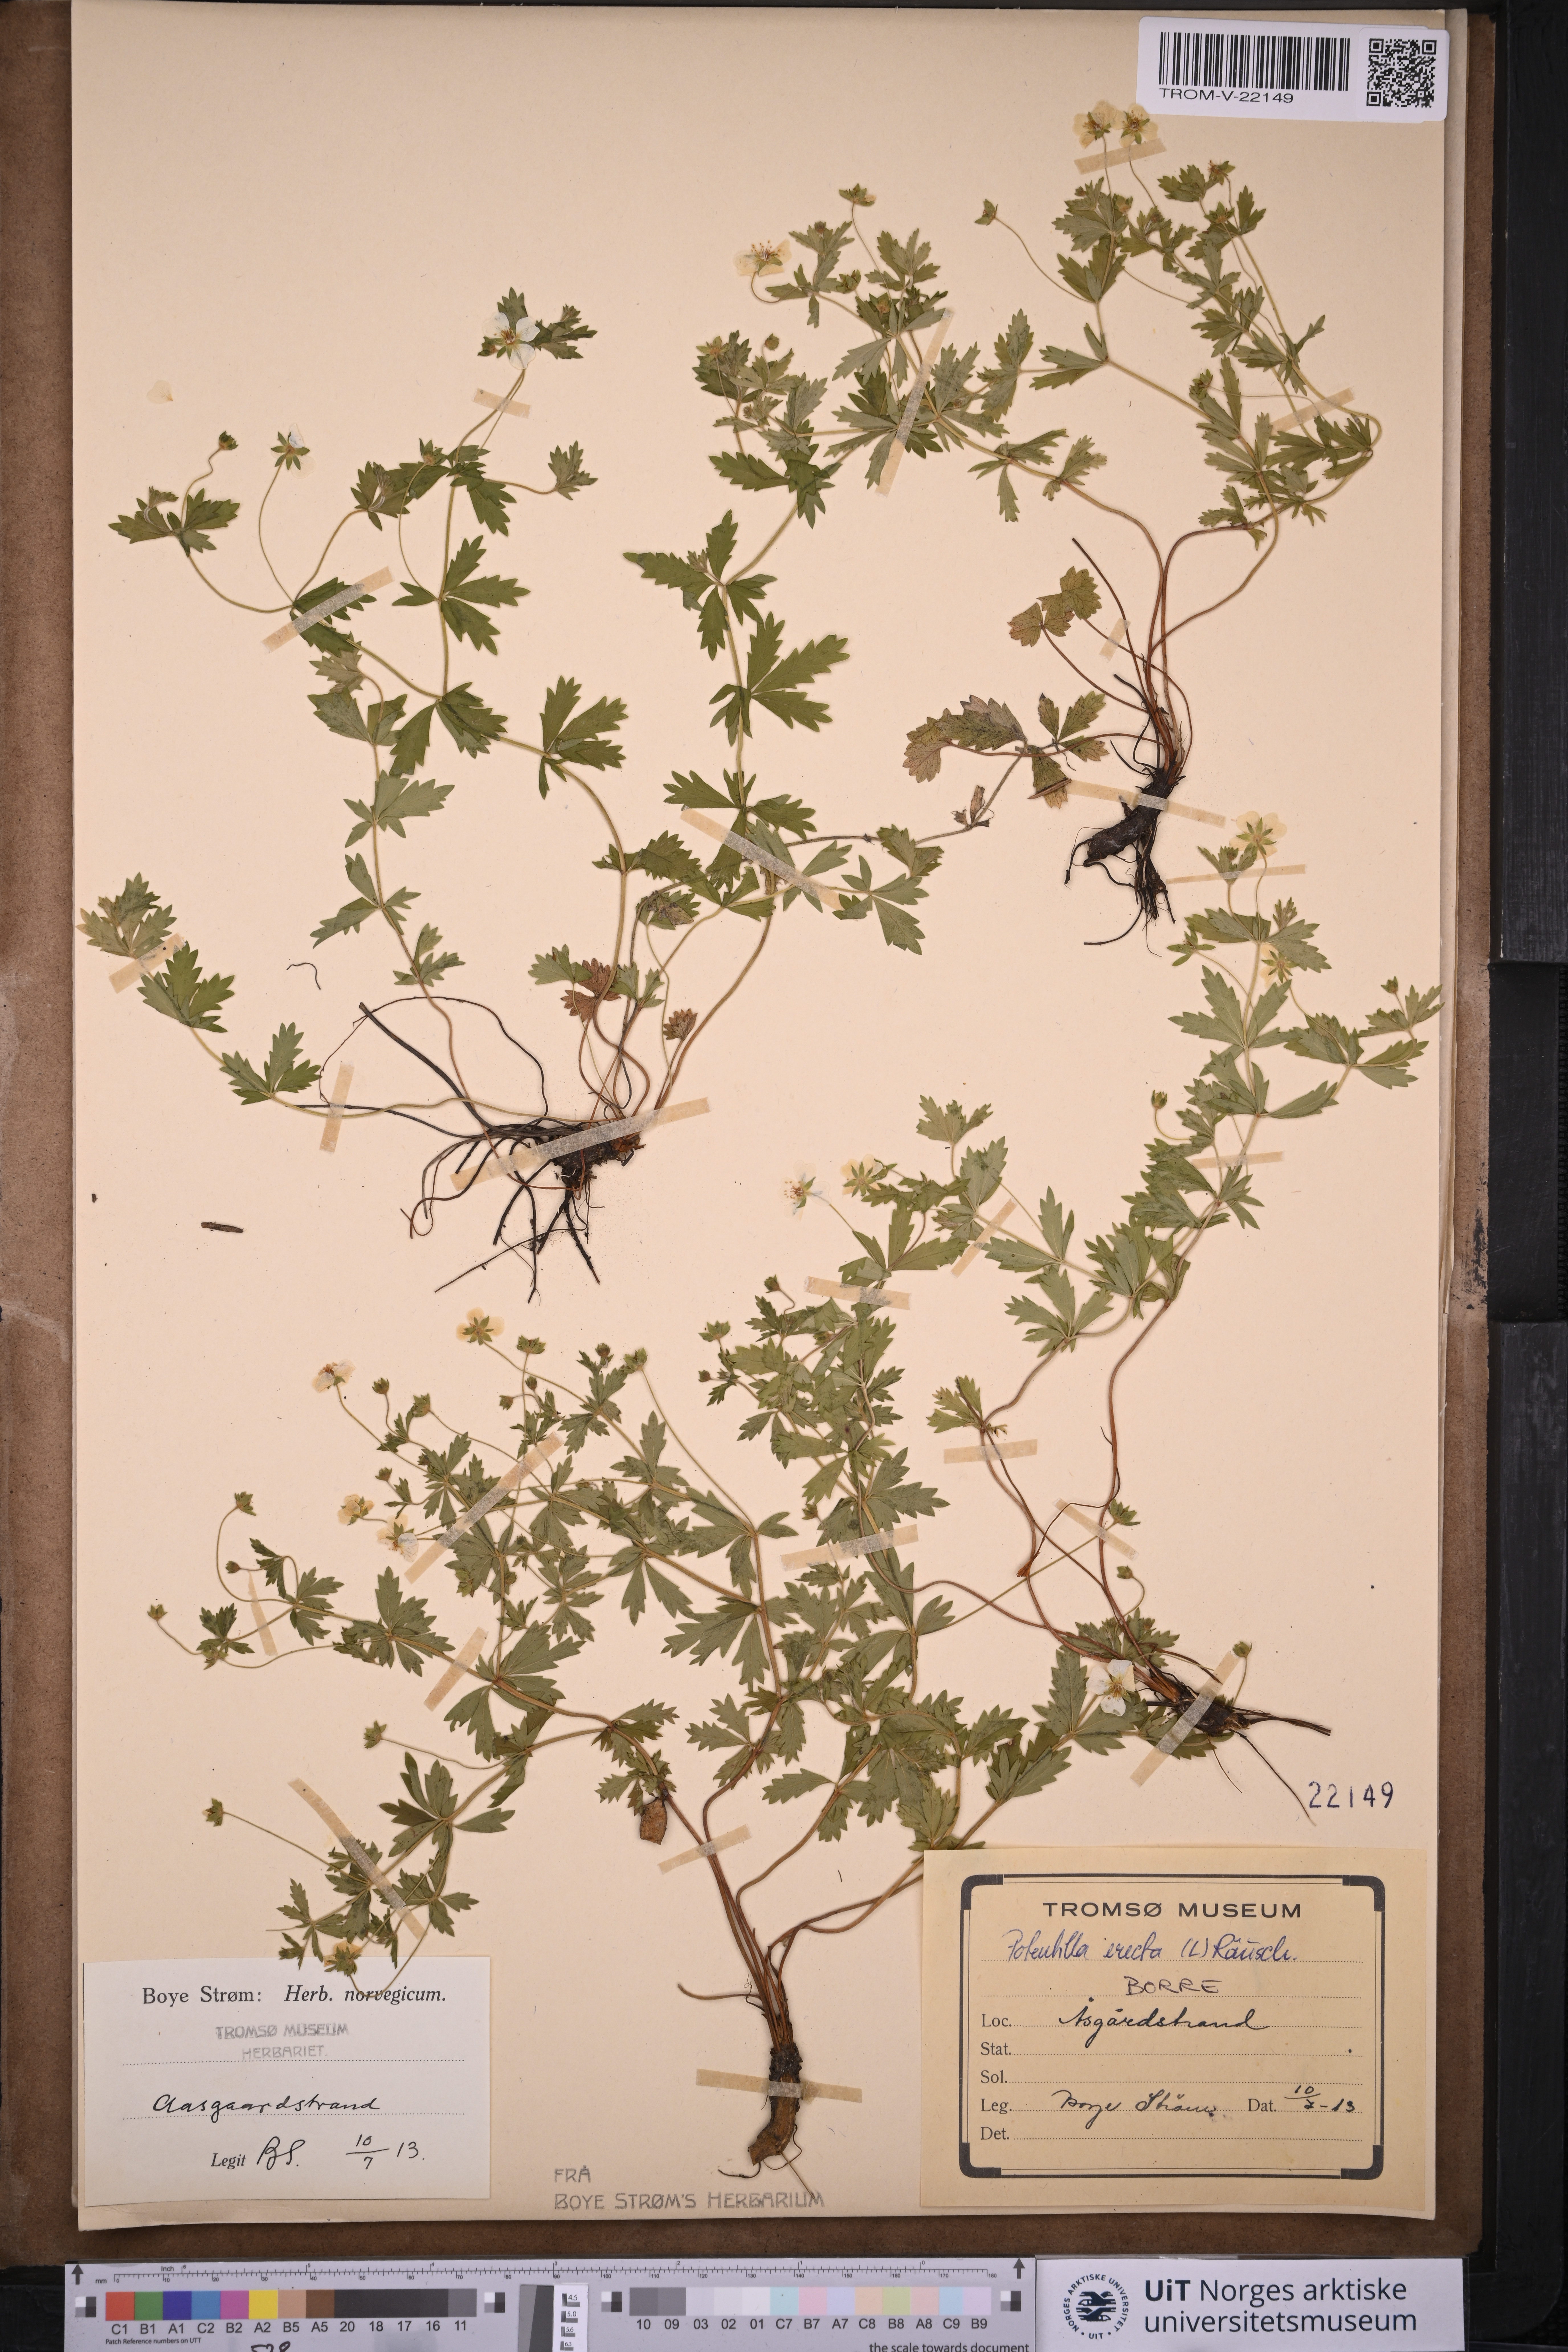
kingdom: Plantae
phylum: Tracheophyta
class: Magnoliopsida
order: Rosales
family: Rosaceae
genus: Potentilla
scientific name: Potentilla erecta
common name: Tormentil
